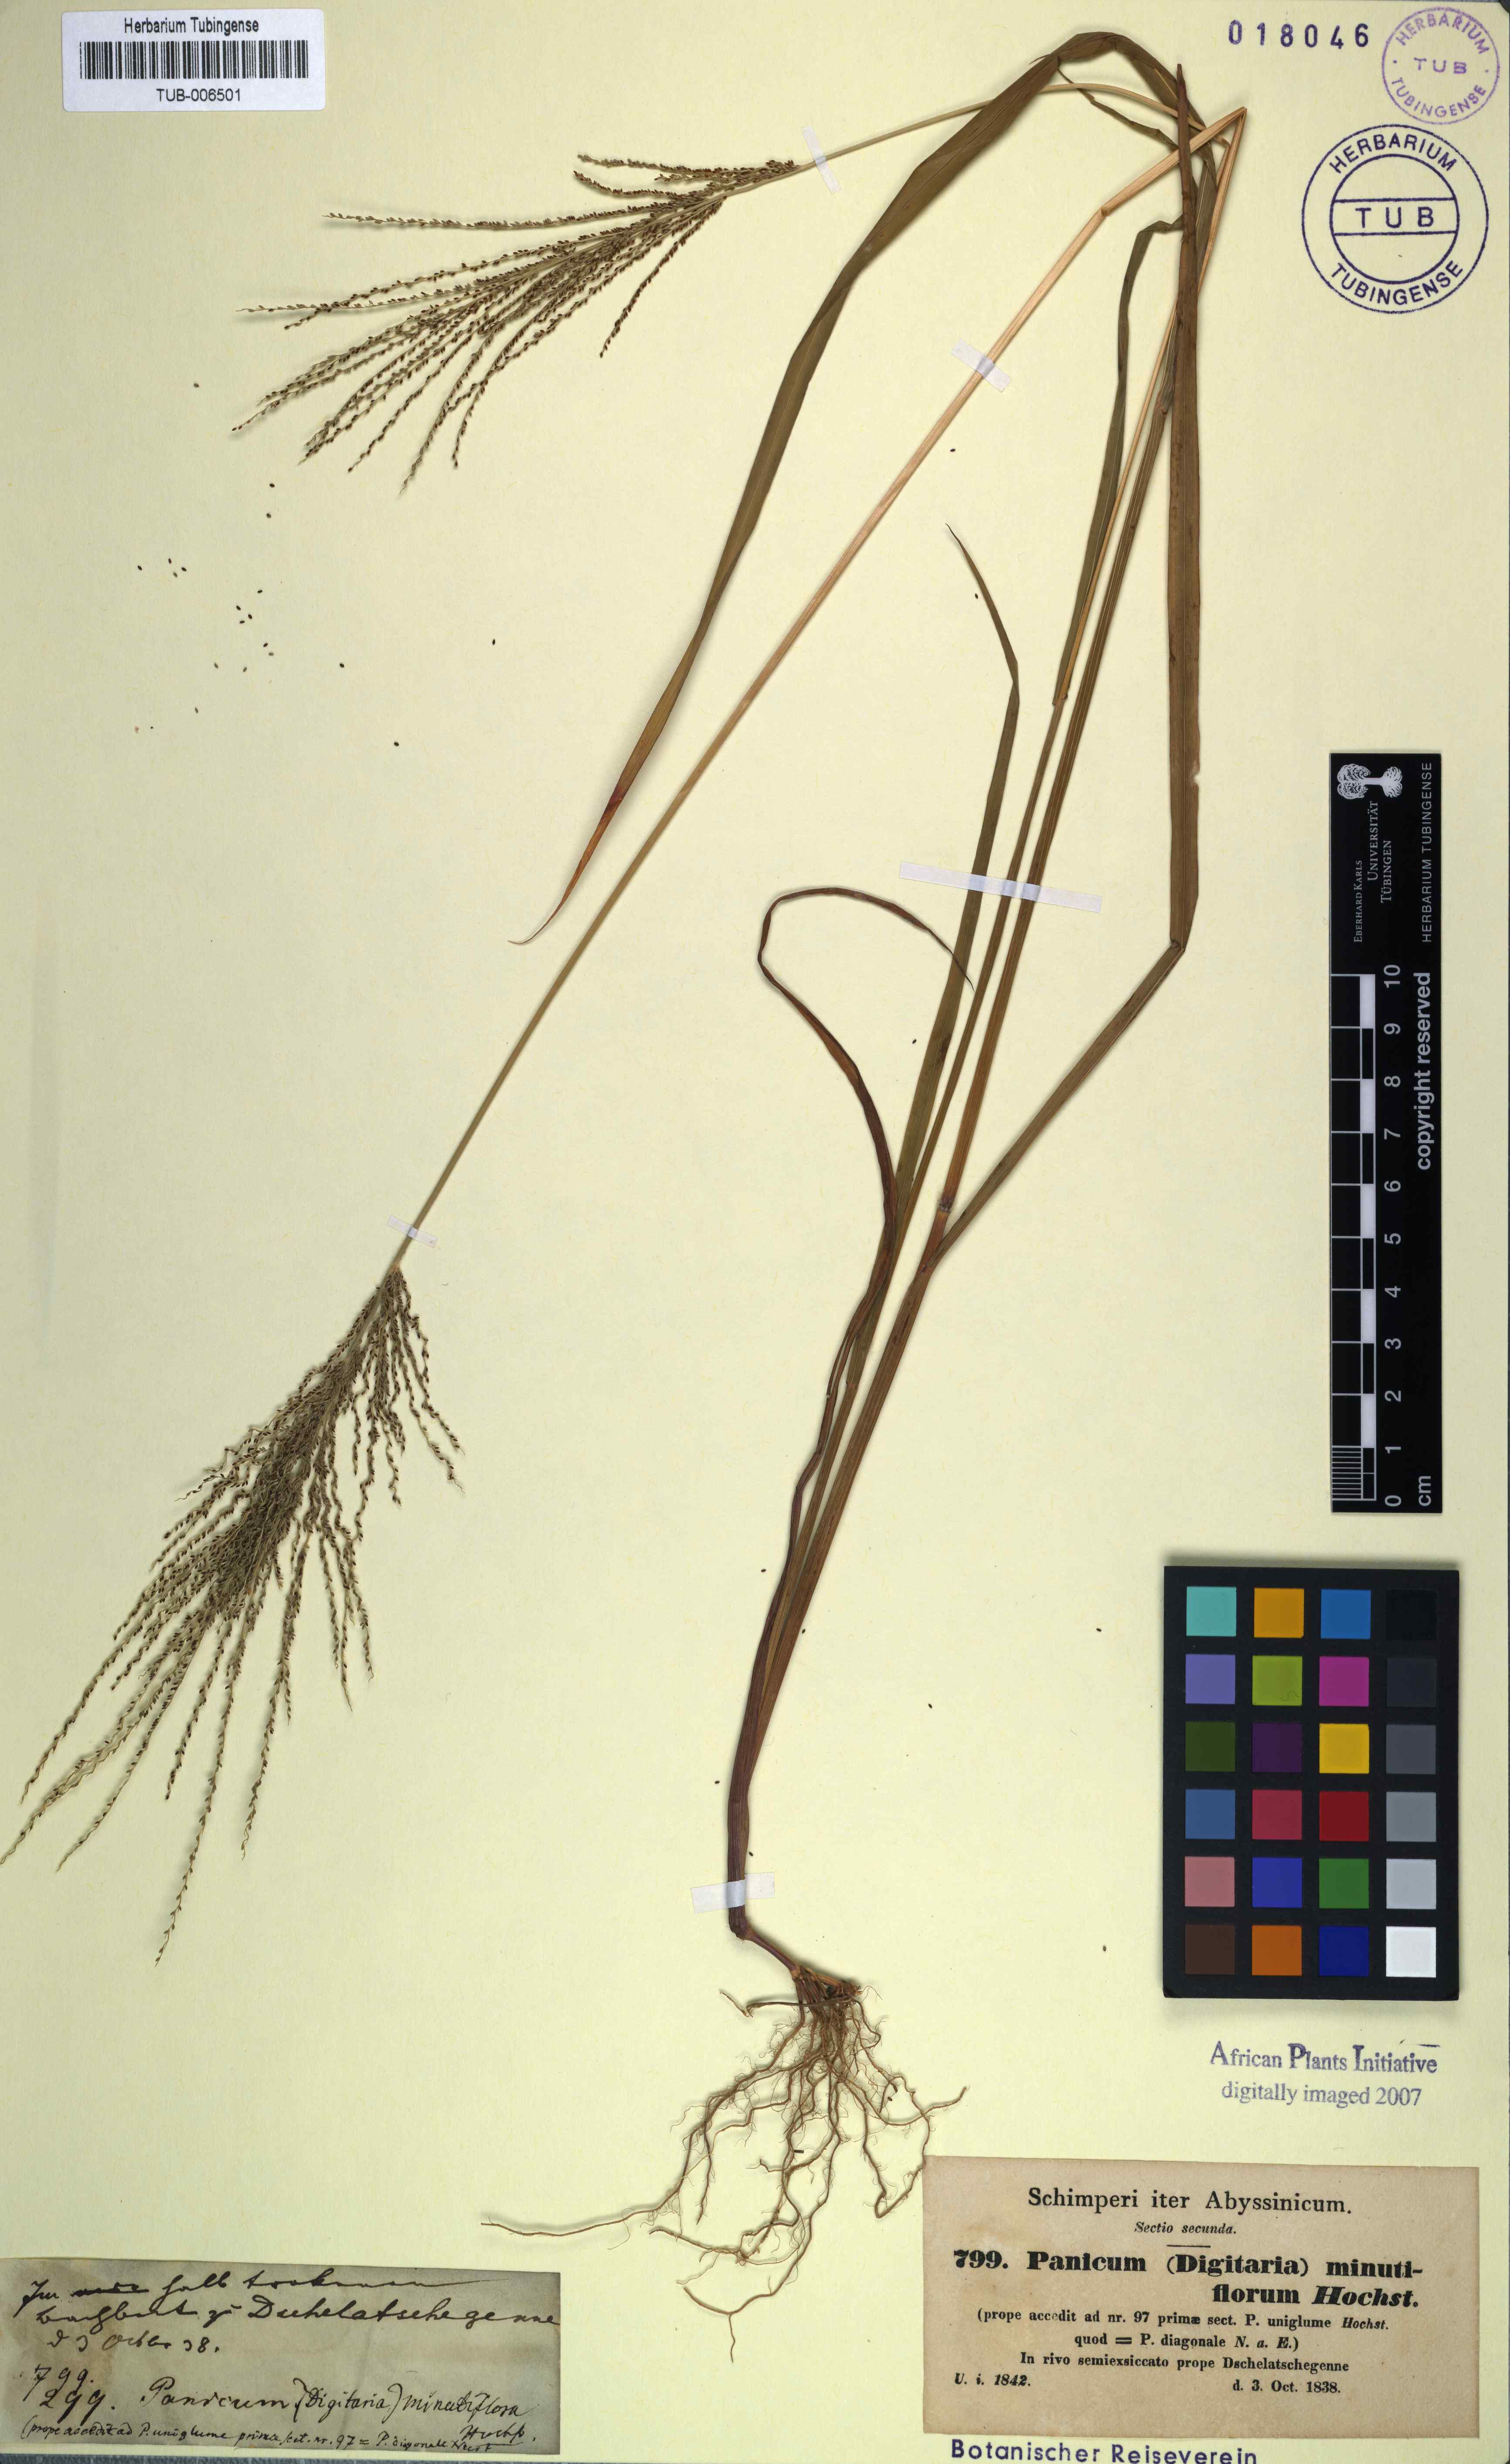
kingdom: Plantae
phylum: Tracheophyta
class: Liliopsida
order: Poales
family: Poaceae
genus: Paspalum
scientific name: Paspalum laxum
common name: Coconut paspalum
